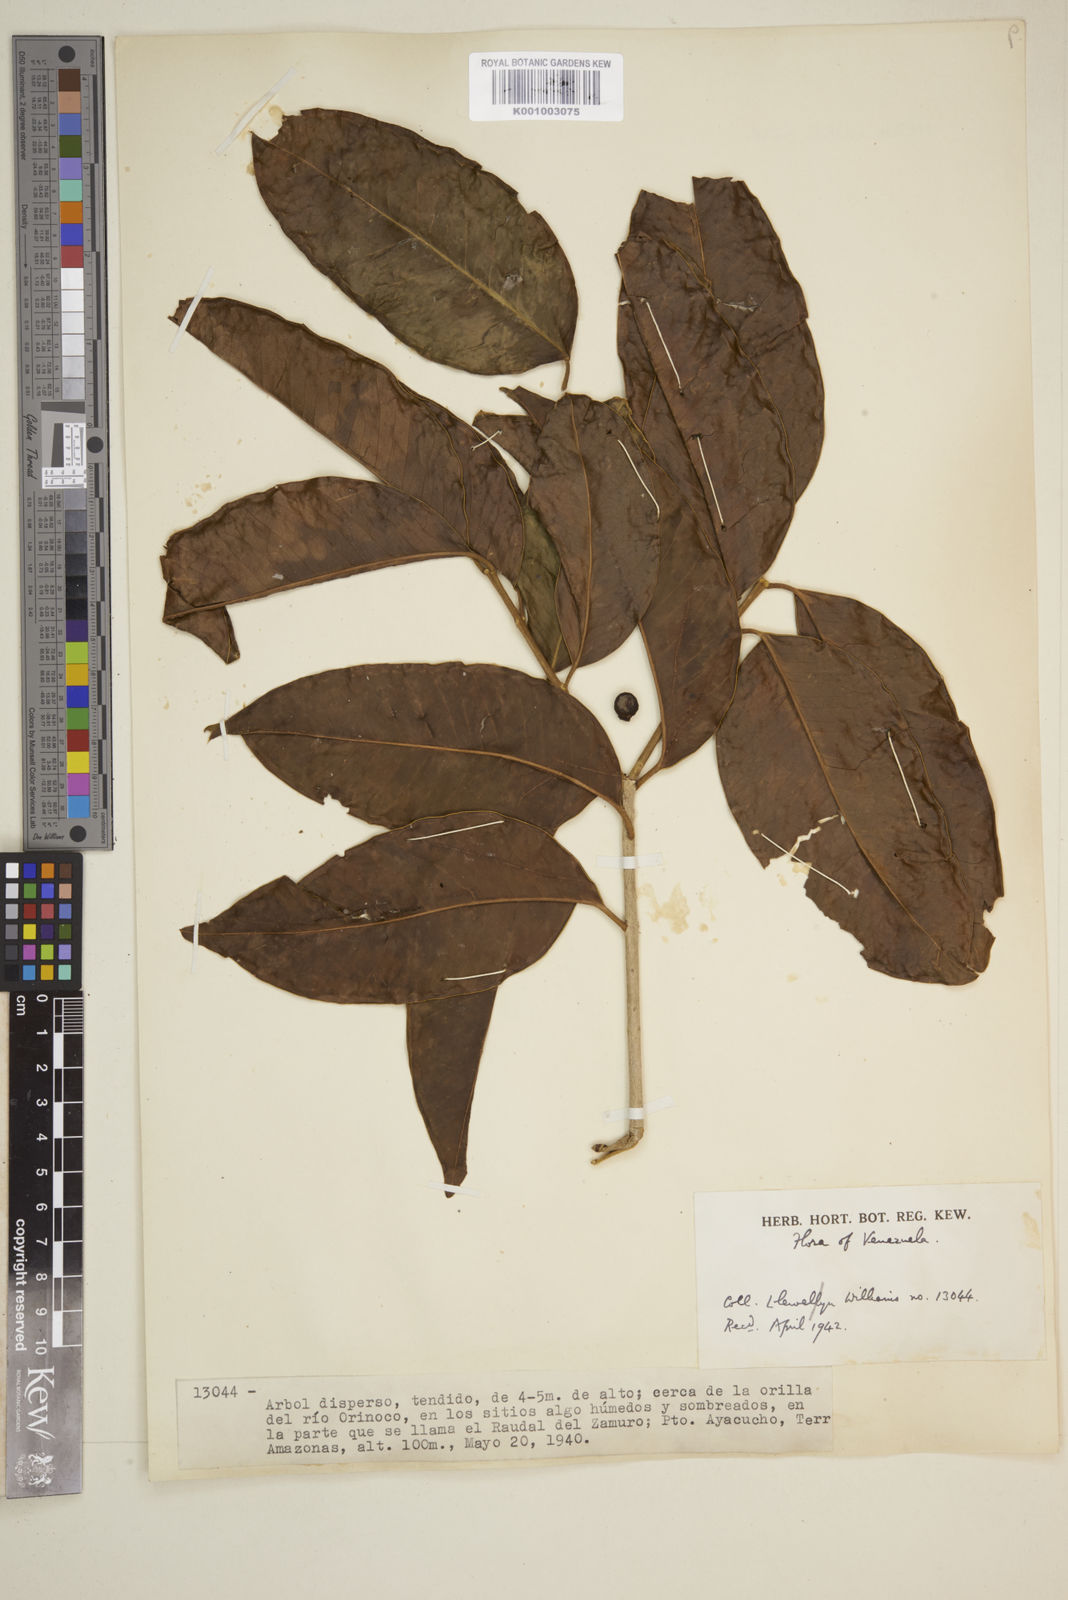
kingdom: Plantae
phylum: Tracheophyta
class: Magnoliopsida
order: Myrtales
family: Myrtaceae
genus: Eugenia
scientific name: Eugenia
